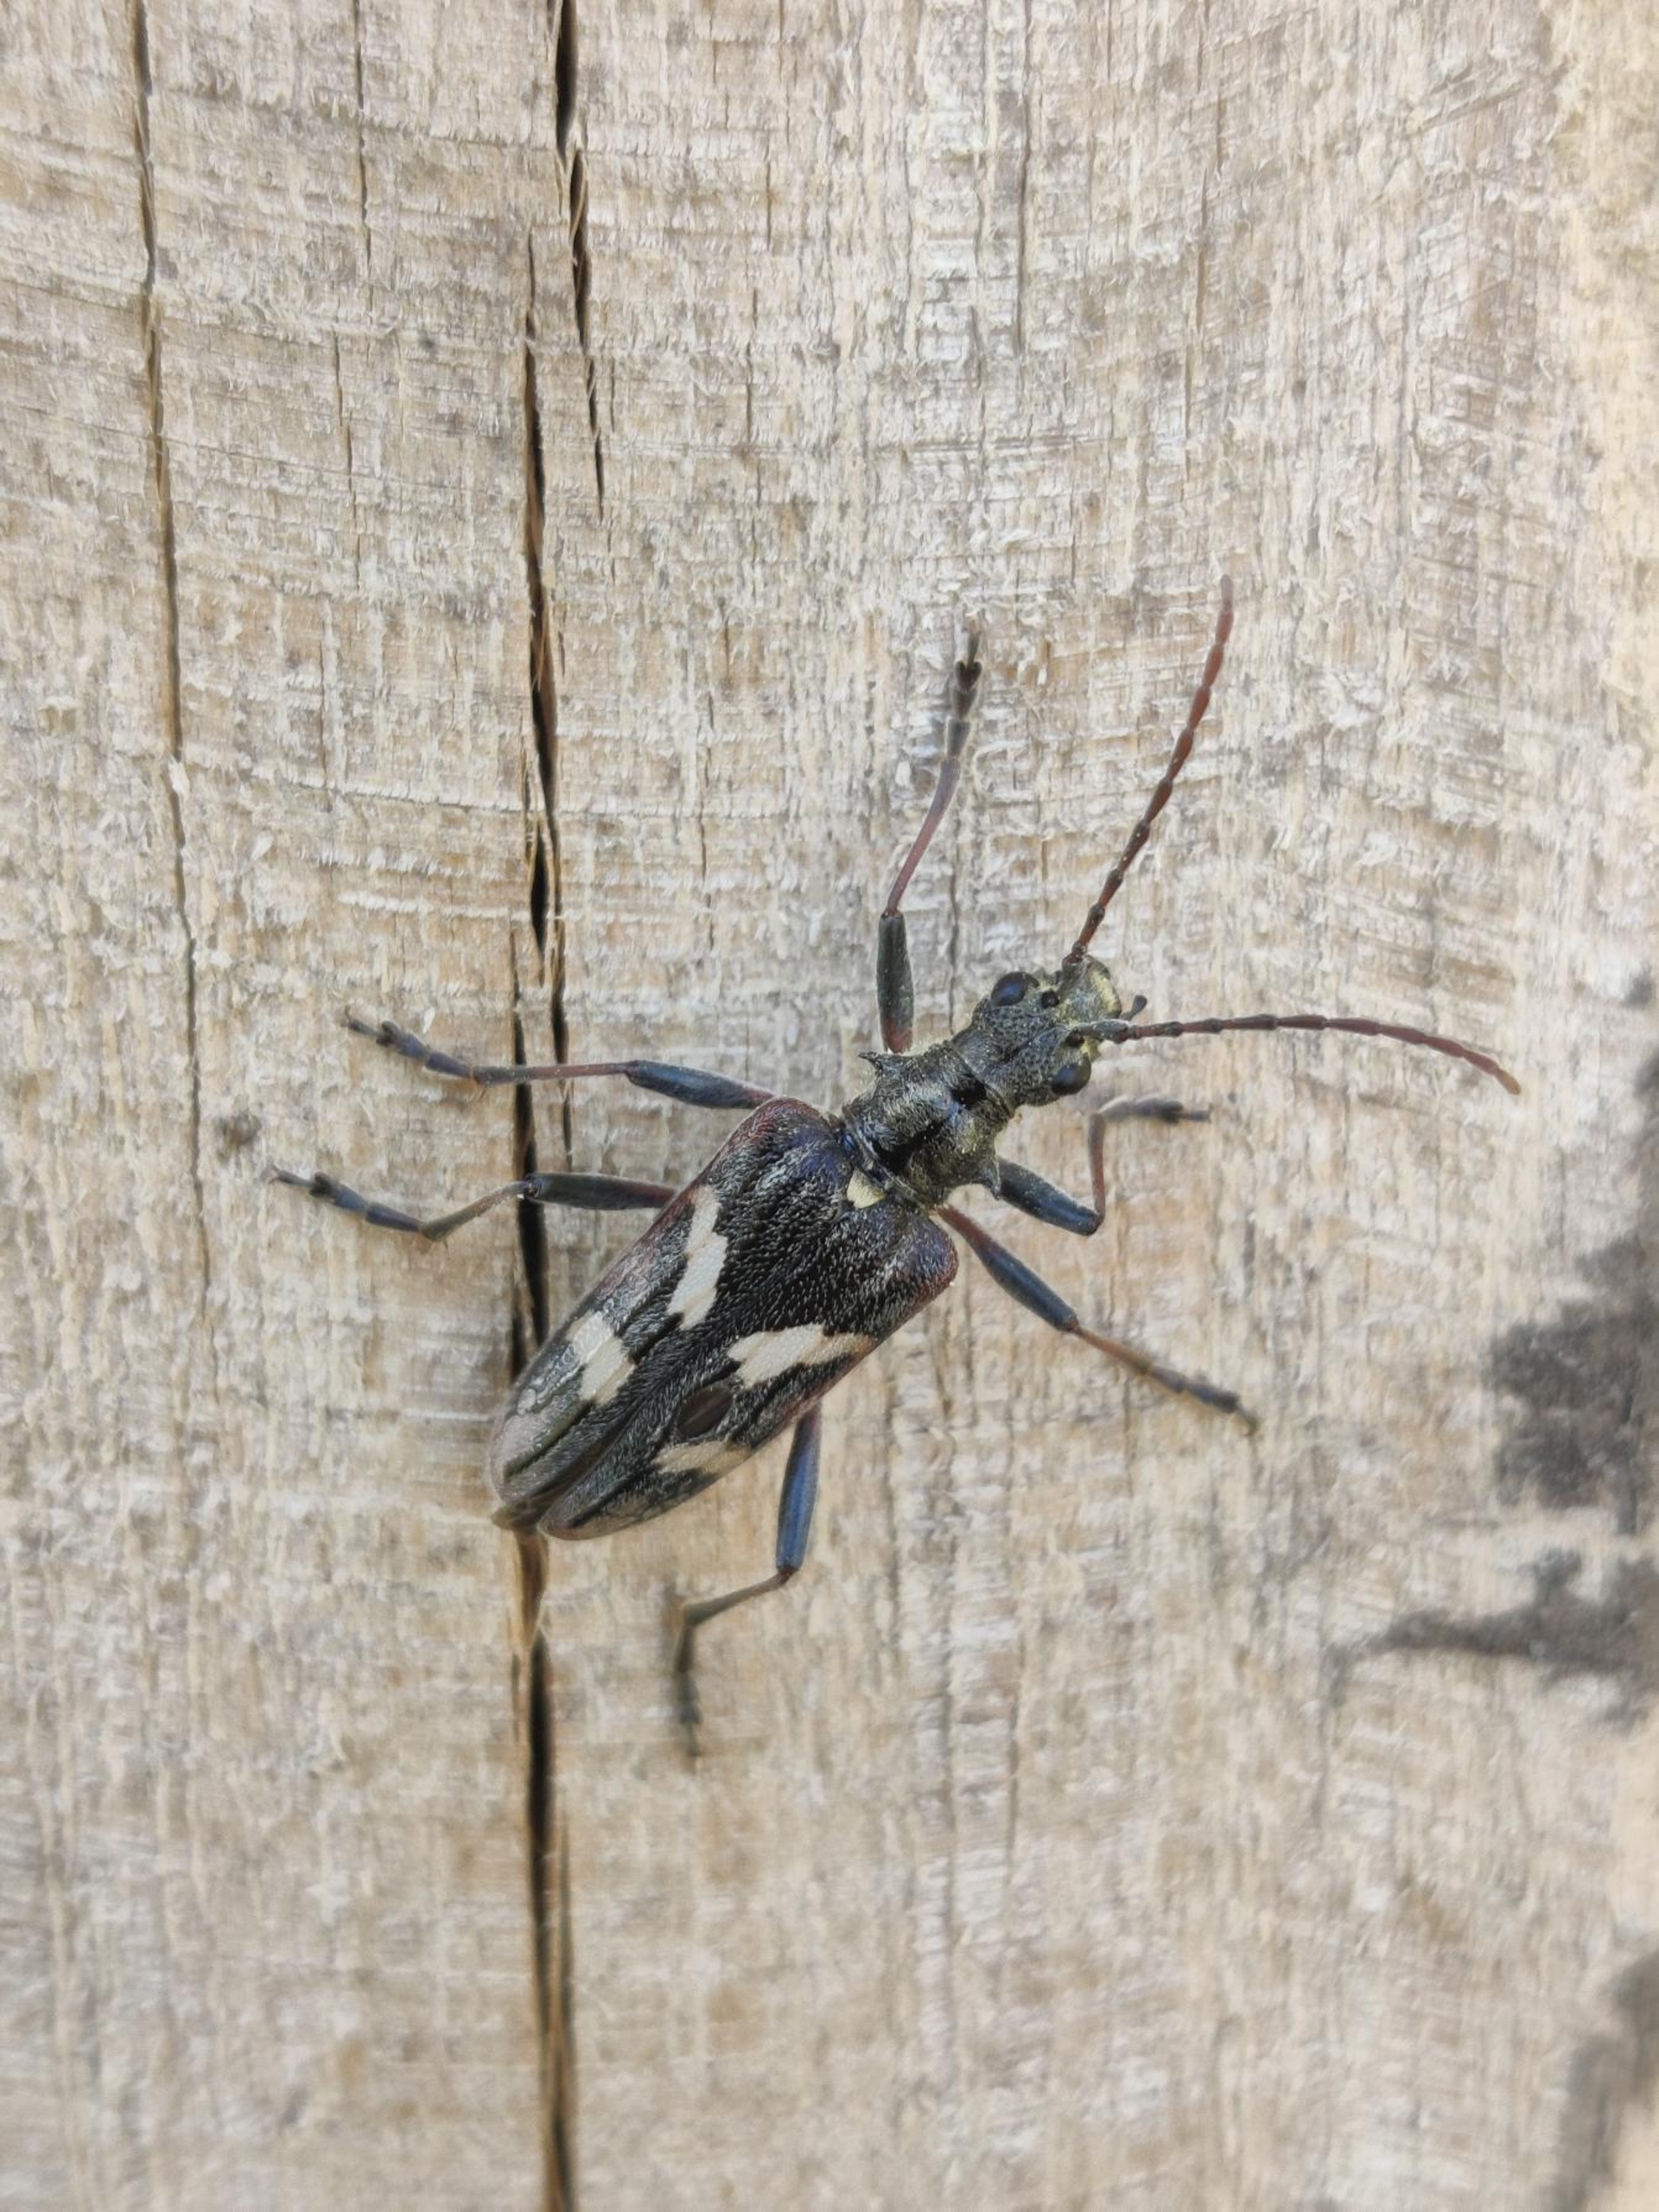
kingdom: Animalia
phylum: Arthropoda
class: Insecta
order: Coleoptera
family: Cerambycidae
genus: Rhagium
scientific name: Rhagium bifasciatum
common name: Båndet tandbuk
